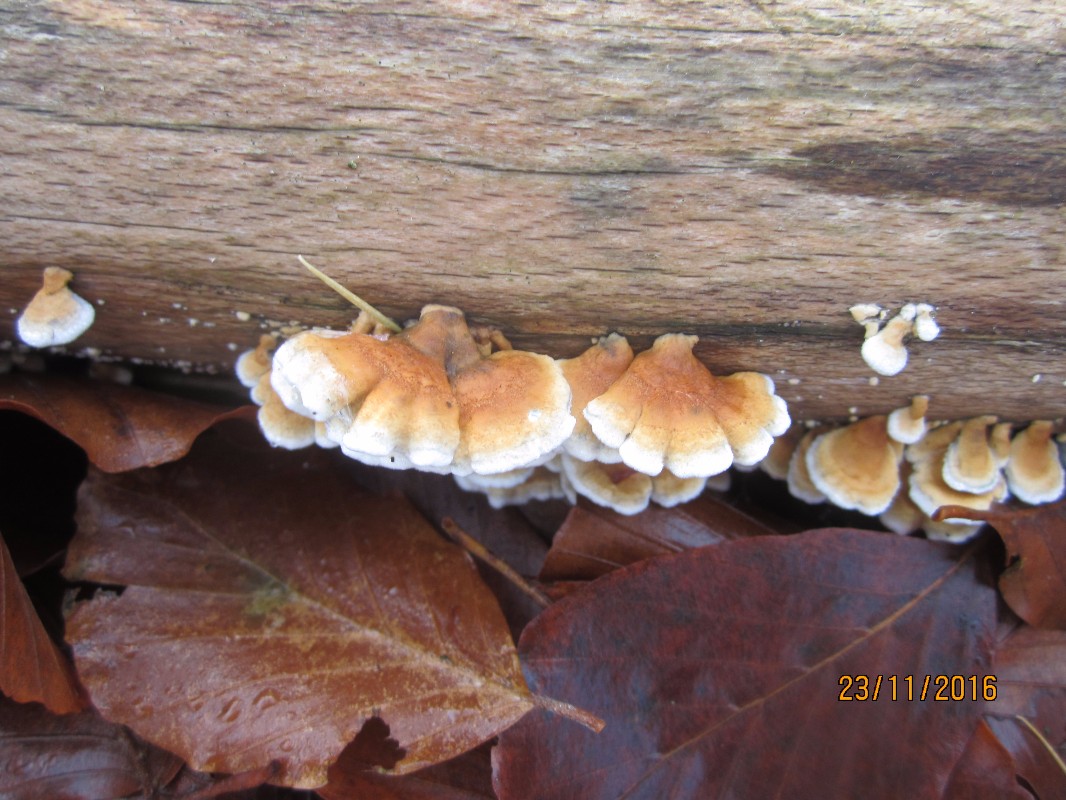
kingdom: Fungi
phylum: Basidiomycota
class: Agaricomycetes
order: Amylocorticiales
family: Amylocorticiaceae
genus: Plicaturopsis
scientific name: Plicaturopsis crispa
